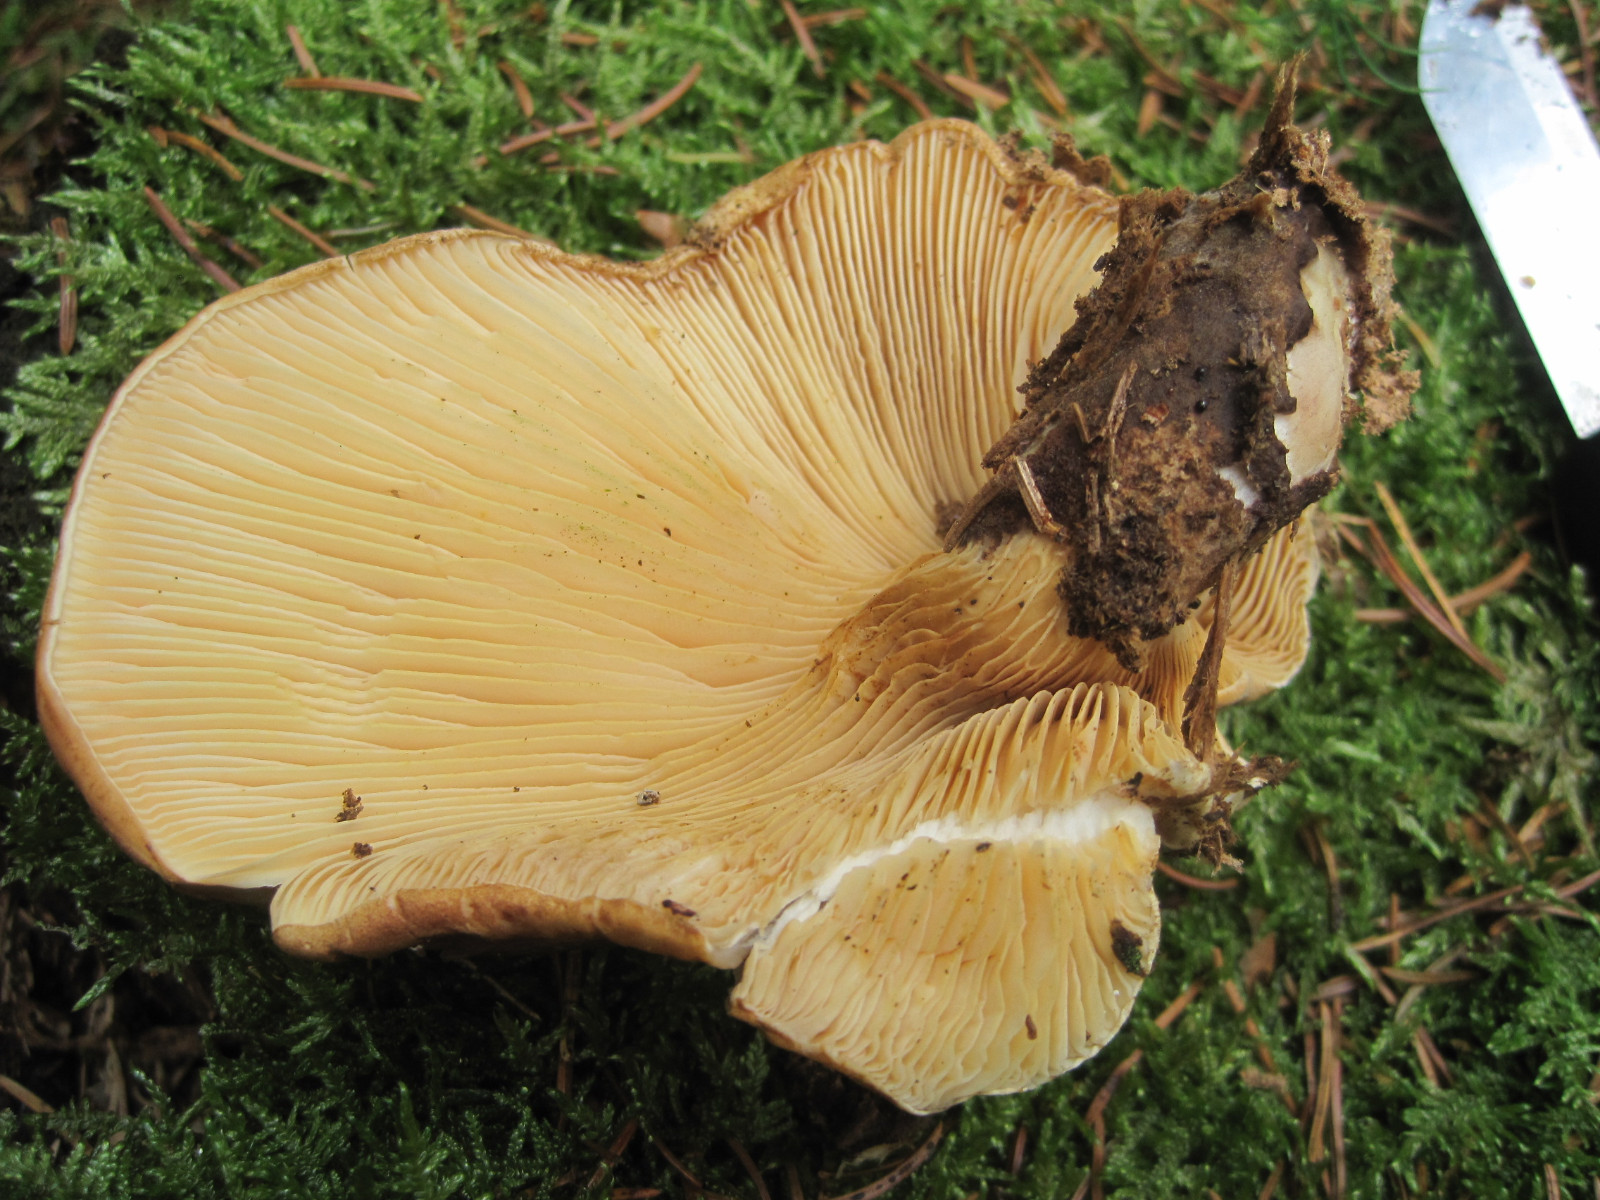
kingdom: Fungi
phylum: Basidiomycota
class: Agaricomycetes
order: Boletales
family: Tapinellaceae
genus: Tapinella
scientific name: Tapinella atrotomentosa
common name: sortfiltet viftesvamp
